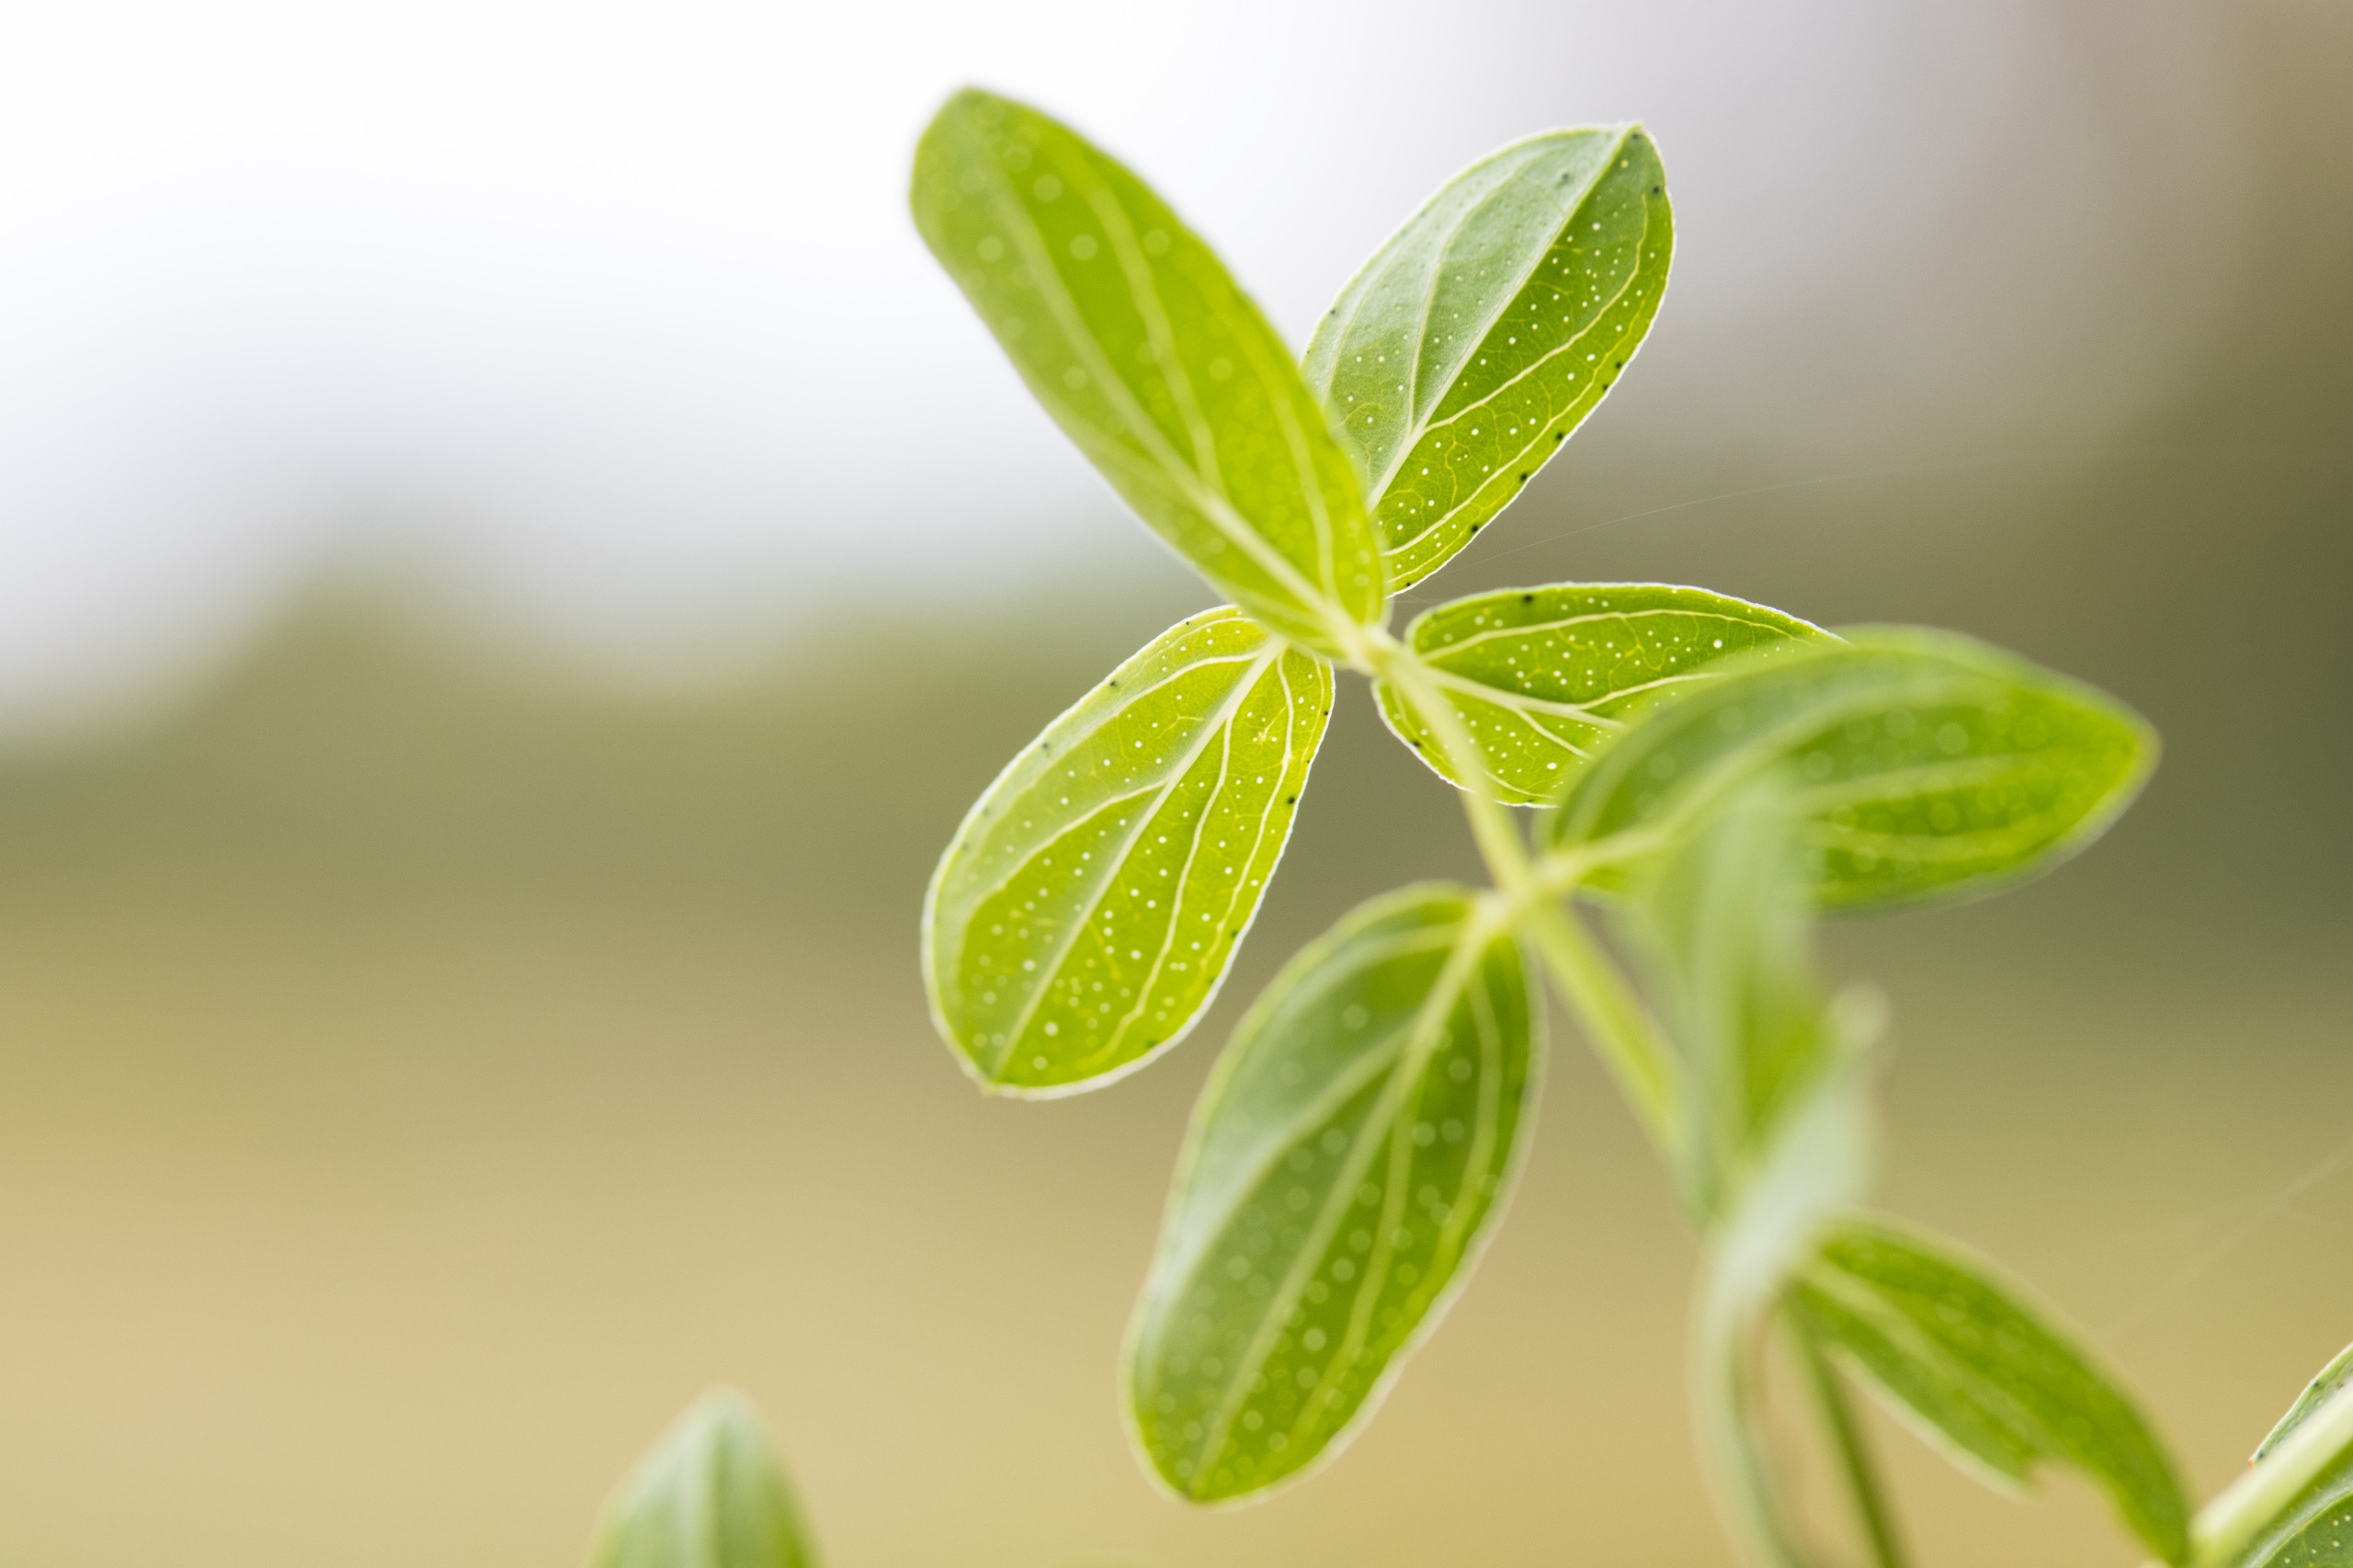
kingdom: Plantae
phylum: Tracheophyta
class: Magnoliopsida
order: Malpighiales
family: Hypericaceae
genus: Hypericum
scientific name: Hypericum perforatum
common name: Prikbladet perikon
